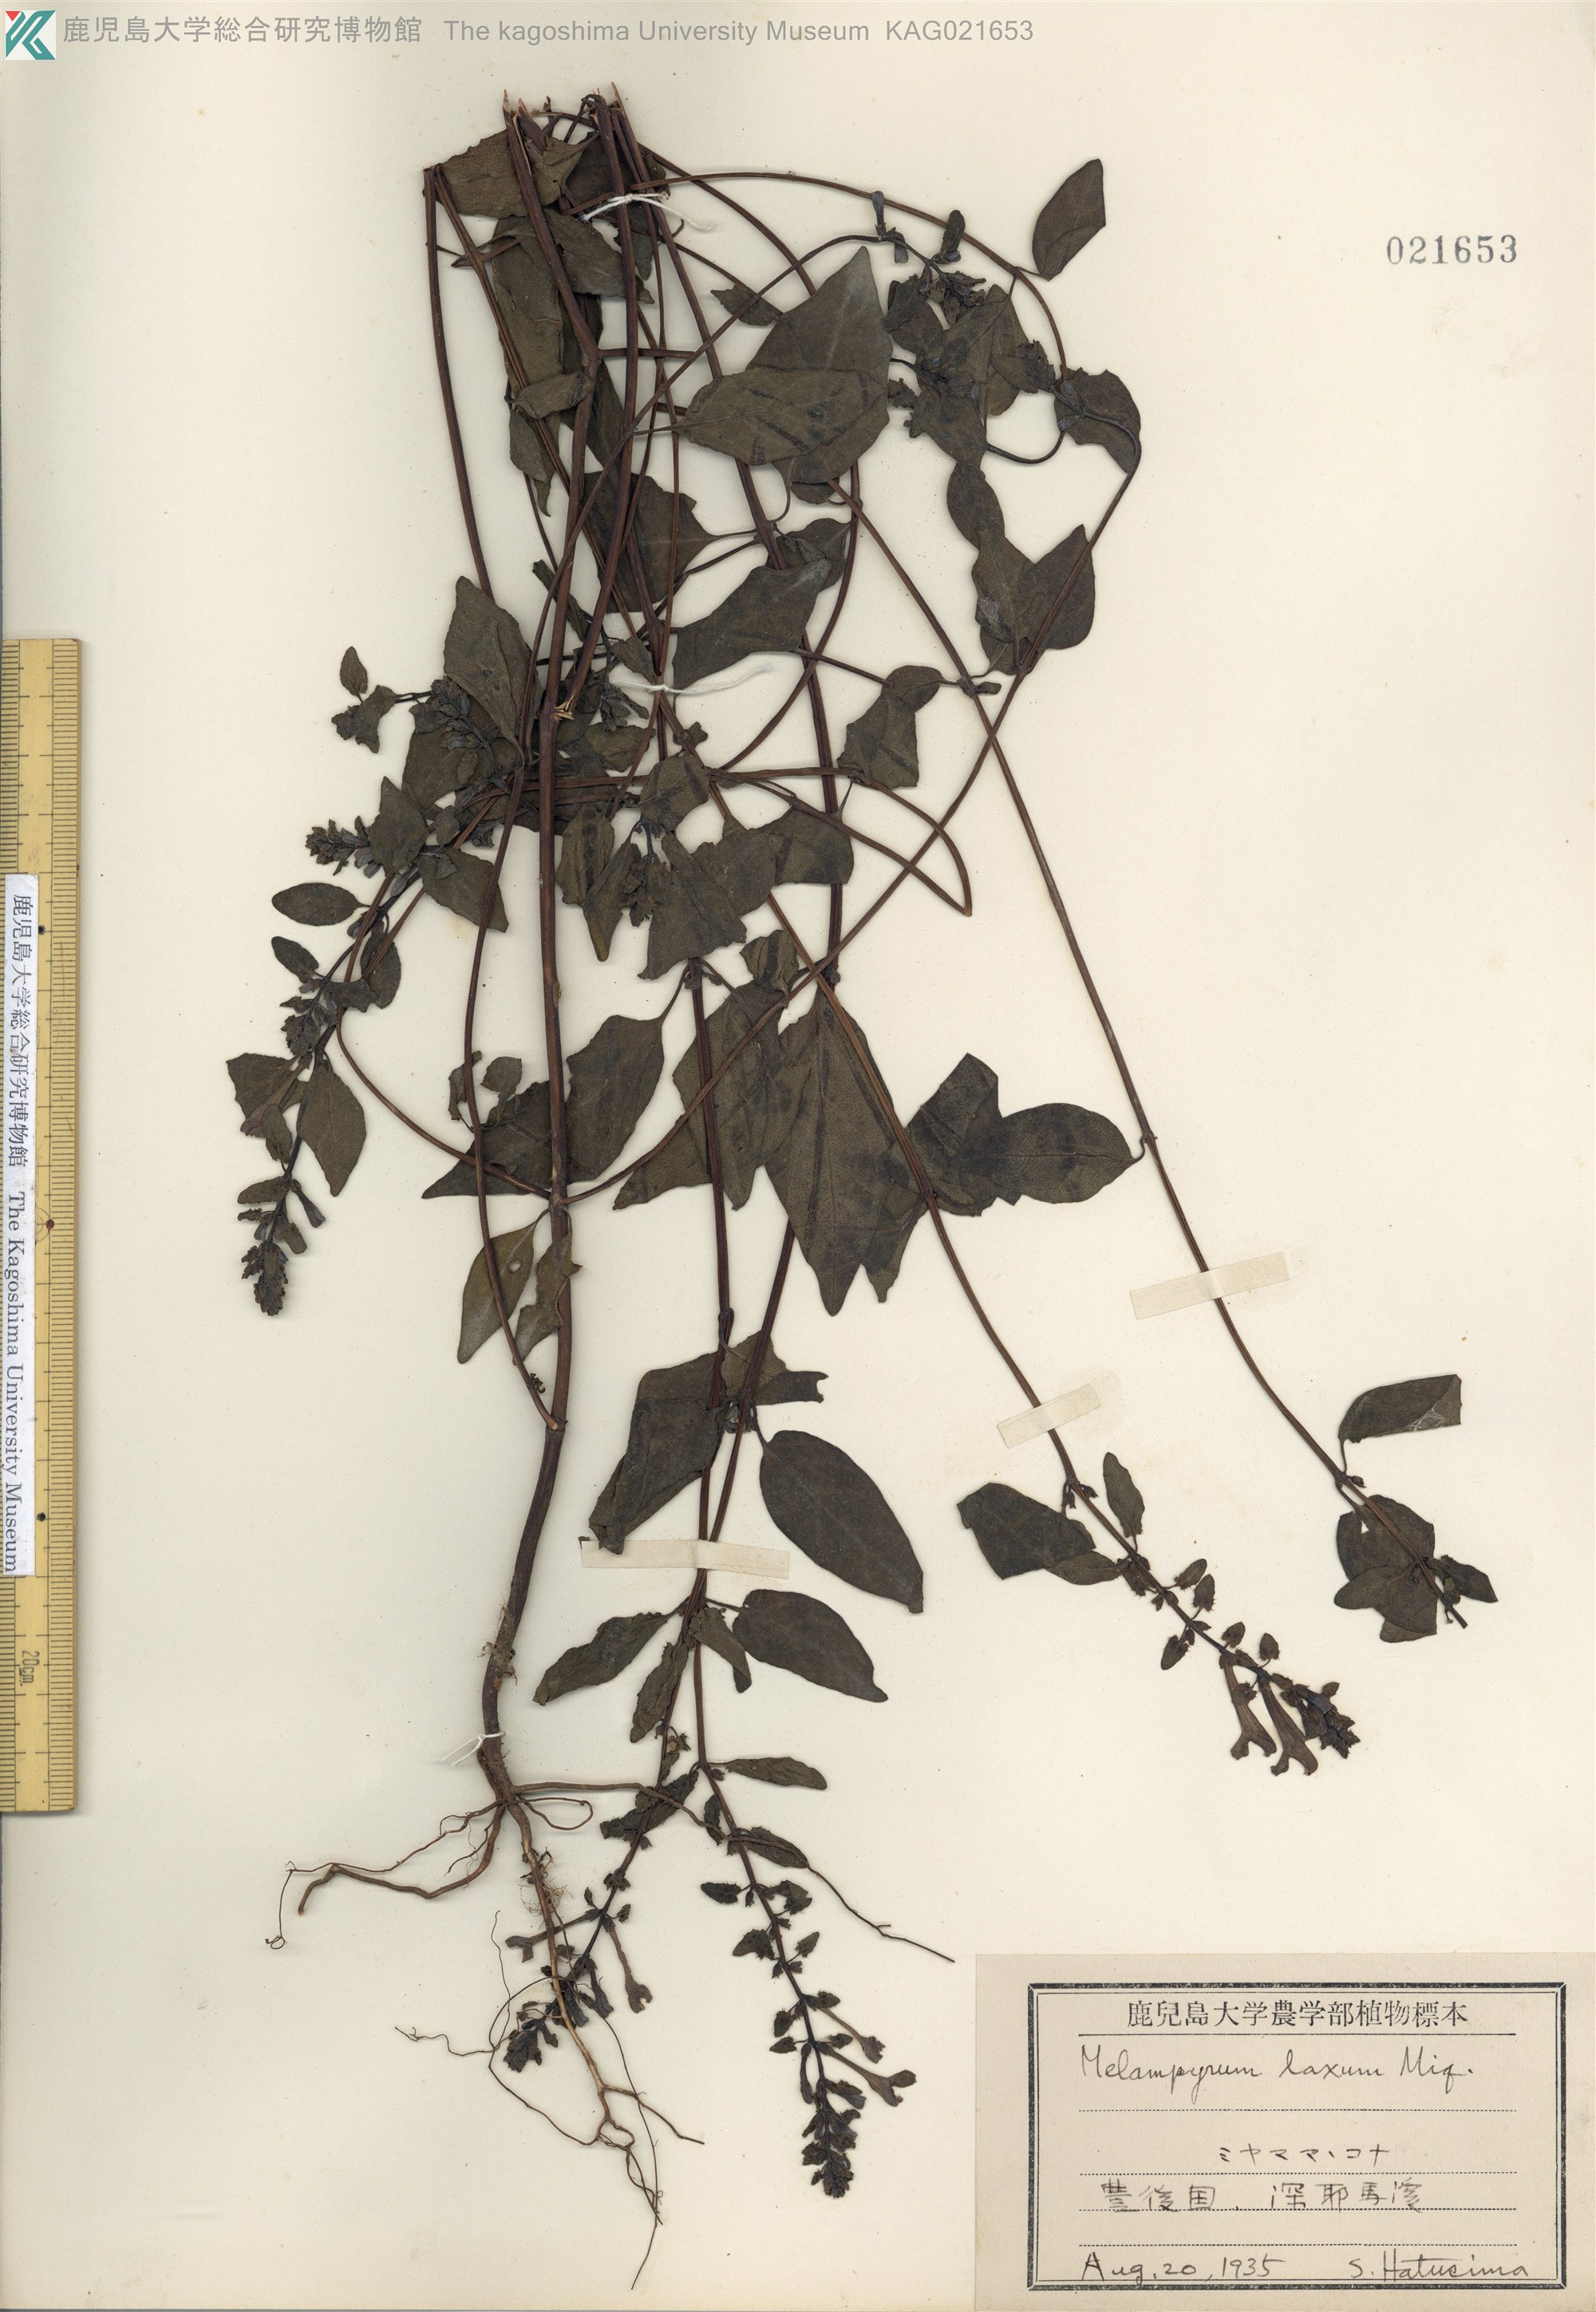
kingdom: Plantae
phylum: Tracheophyta
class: Magnoliopsida
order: Lamiales
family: Orobanchaceae
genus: Melampyrum
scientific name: Melampyrum laxum
